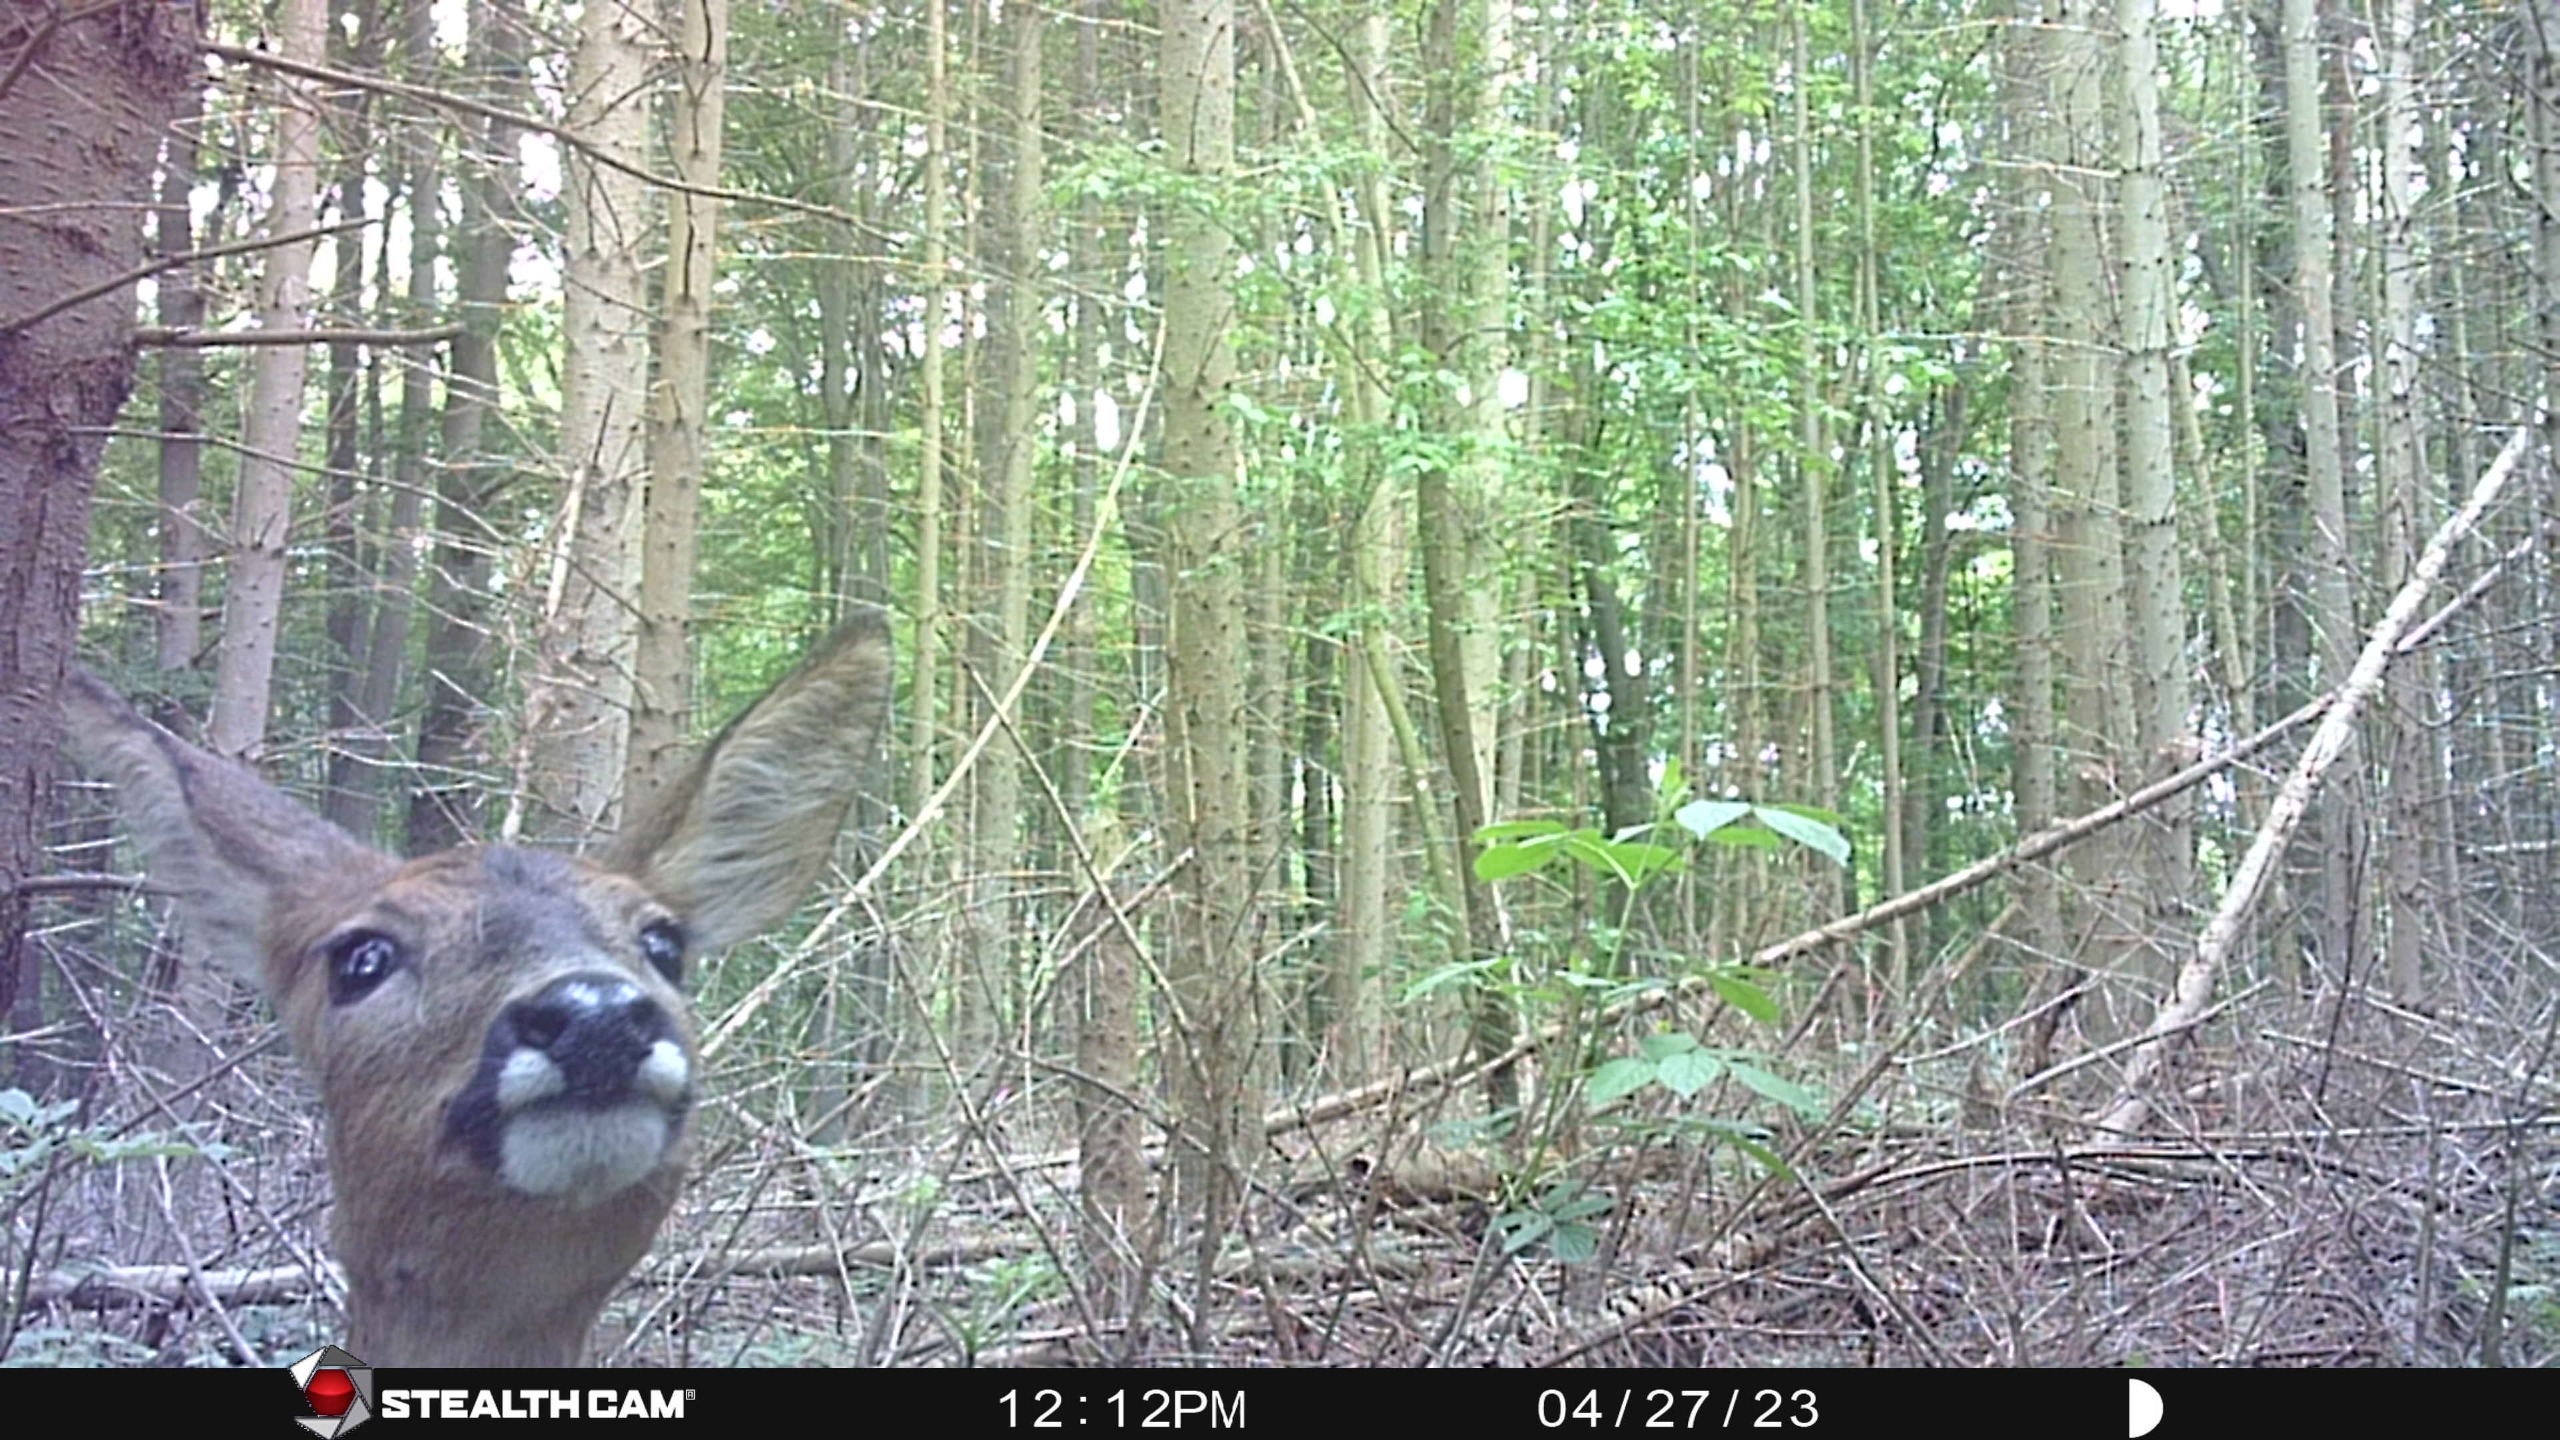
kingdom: Animalia
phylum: Chordata
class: Mammalia
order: Artiodactyla
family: Cervidae
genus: Capreolus
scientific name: Capreolus capreolus
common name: Rådyr
